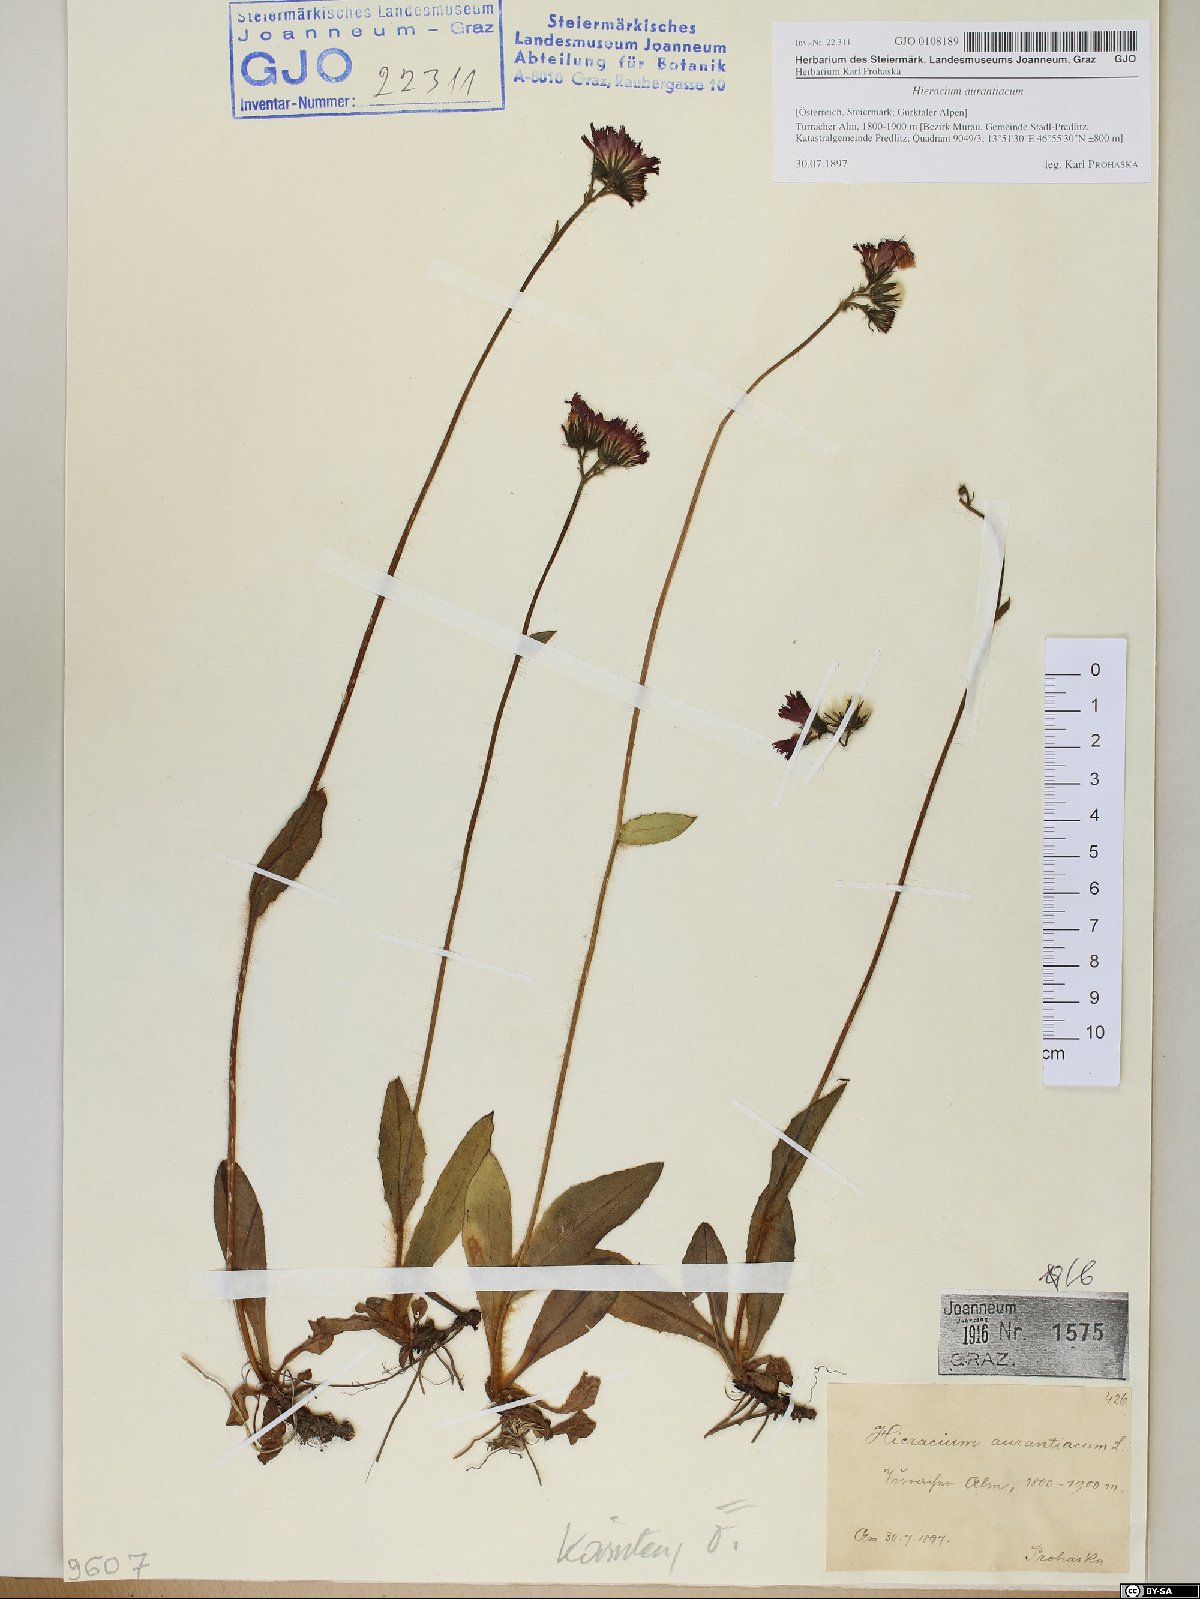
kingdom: Plantae
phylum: Tracheophyta
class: Magnoliopsida
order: Asterales
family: Asteraceae
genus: Pilosella
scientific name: Pilosella aurantiaca
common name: Fox-and-cubs
